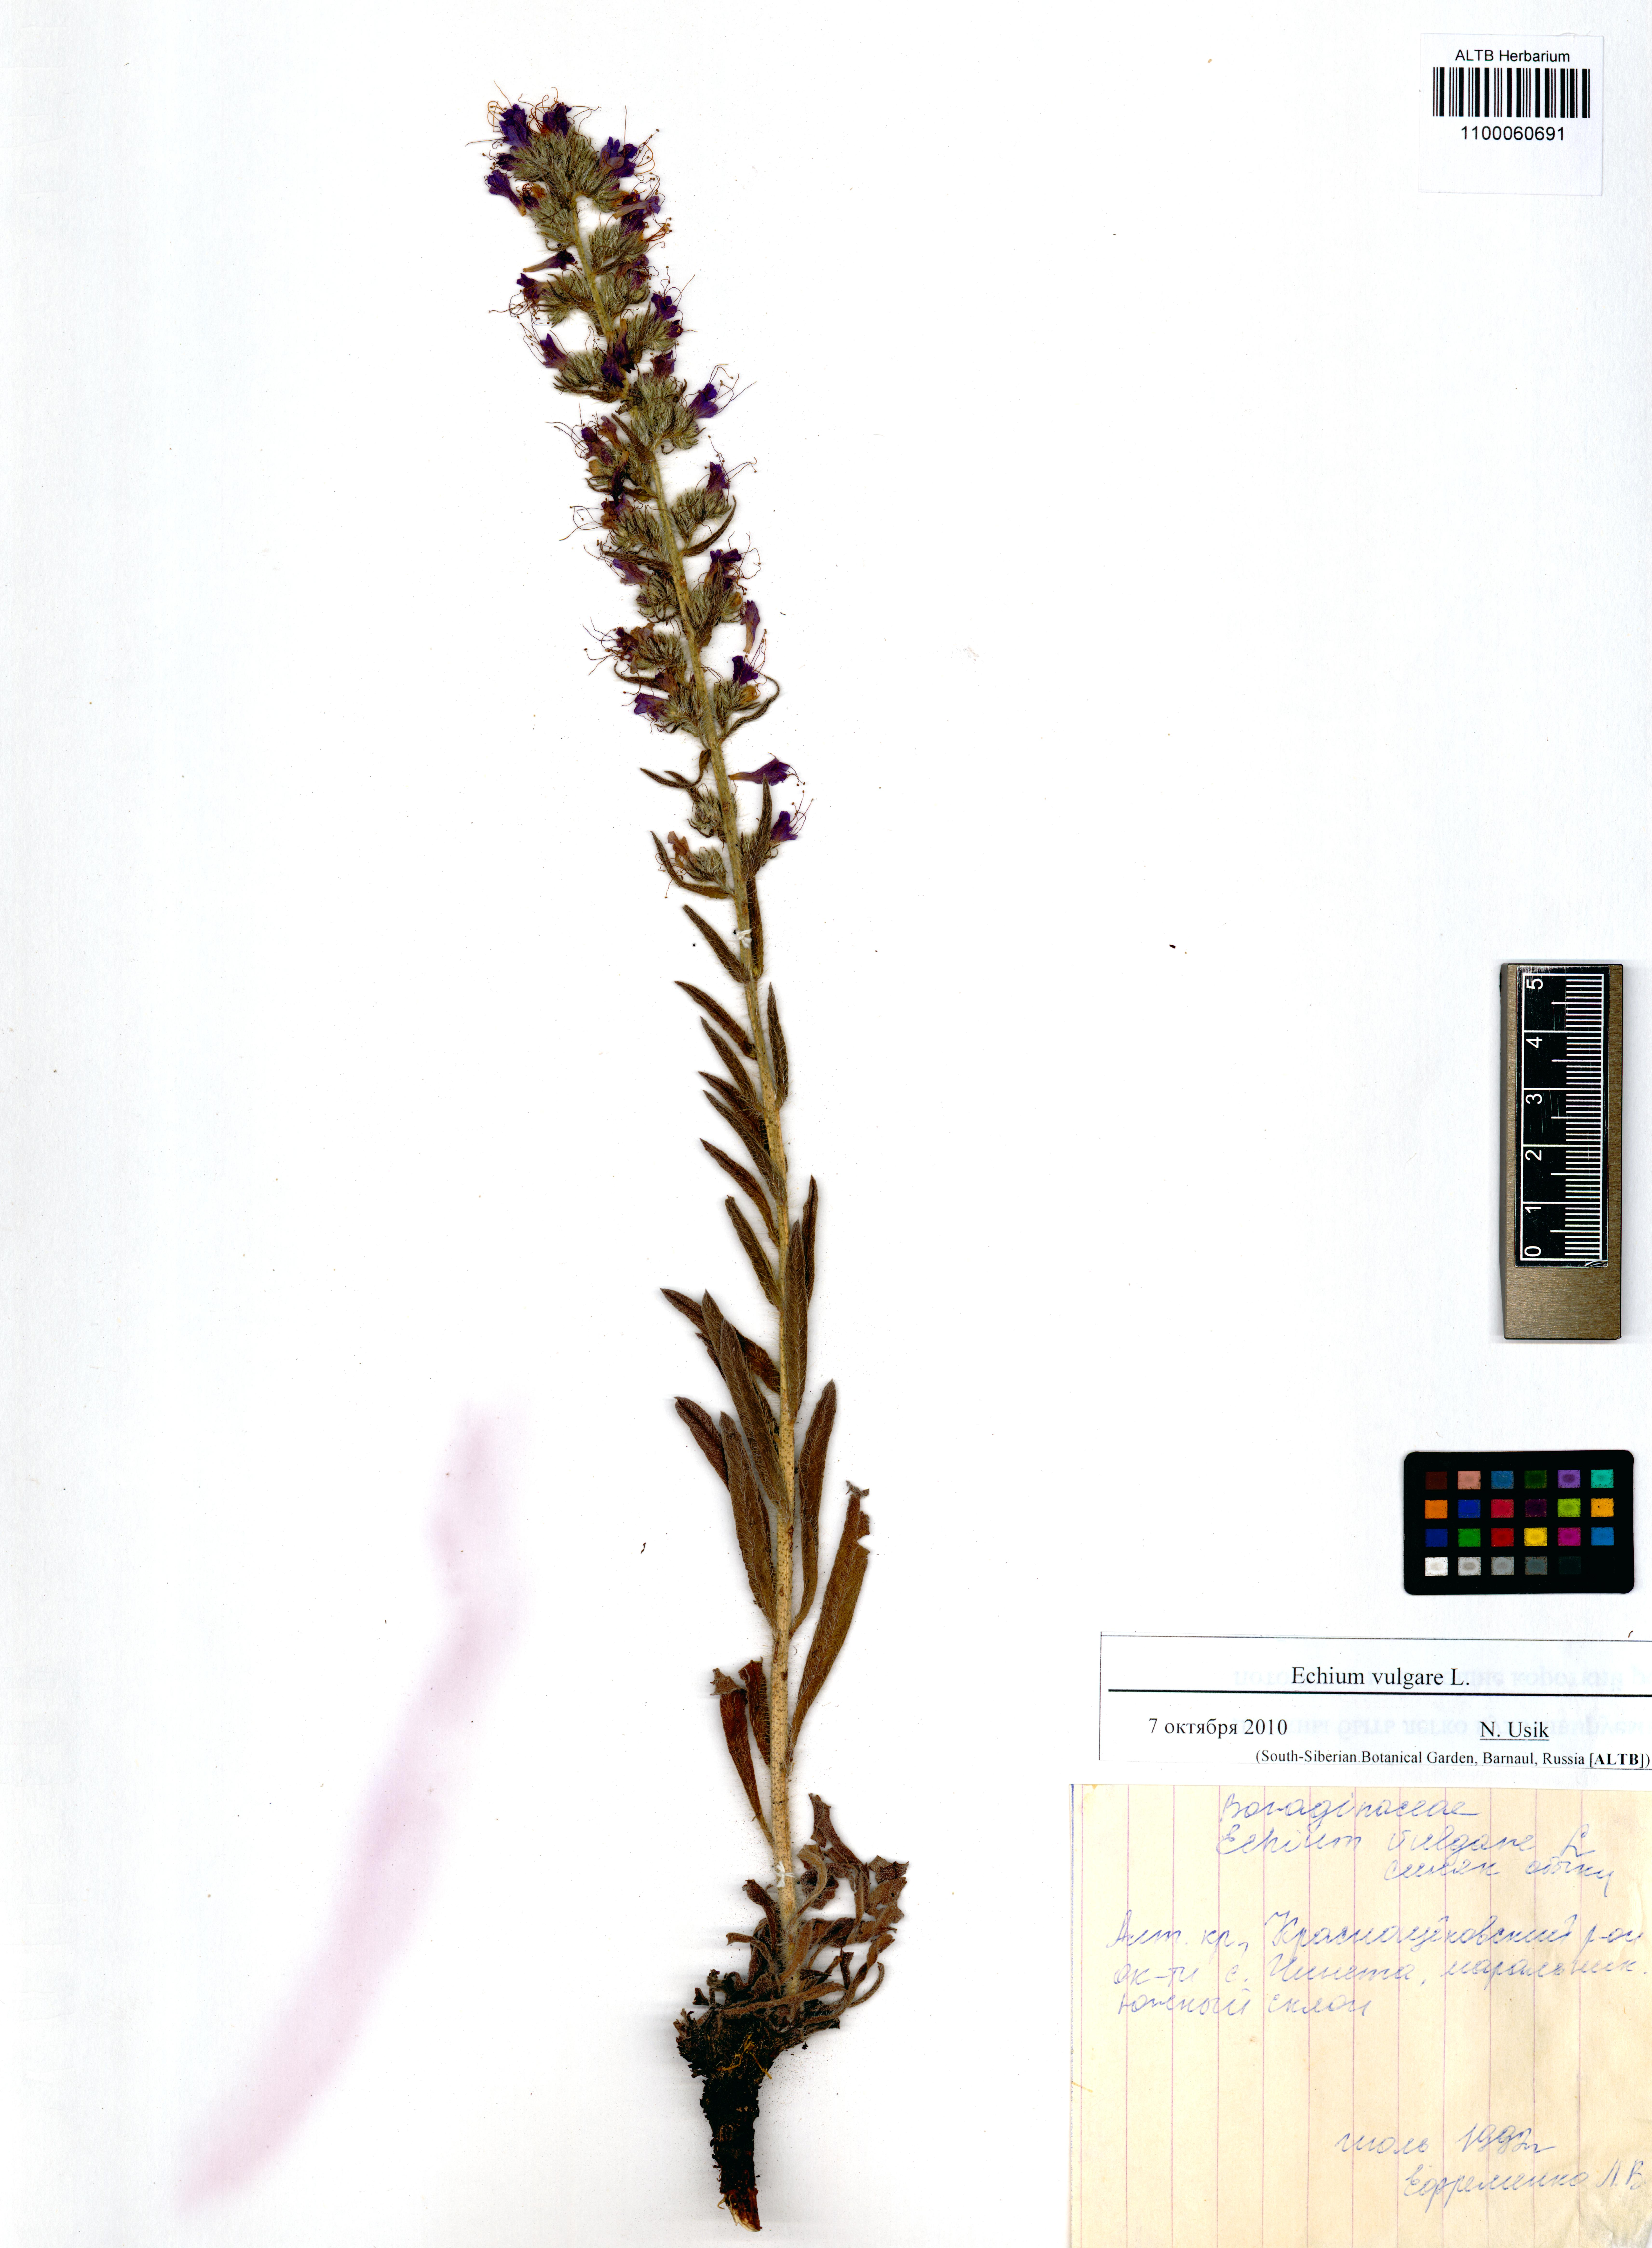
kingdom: Plantae
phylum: Tracheophyta
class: Magnoliopsida
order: Boraginales
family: Boraginaceae
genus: Echium
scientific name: Echium vulgare
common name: Common viper's bugloss
